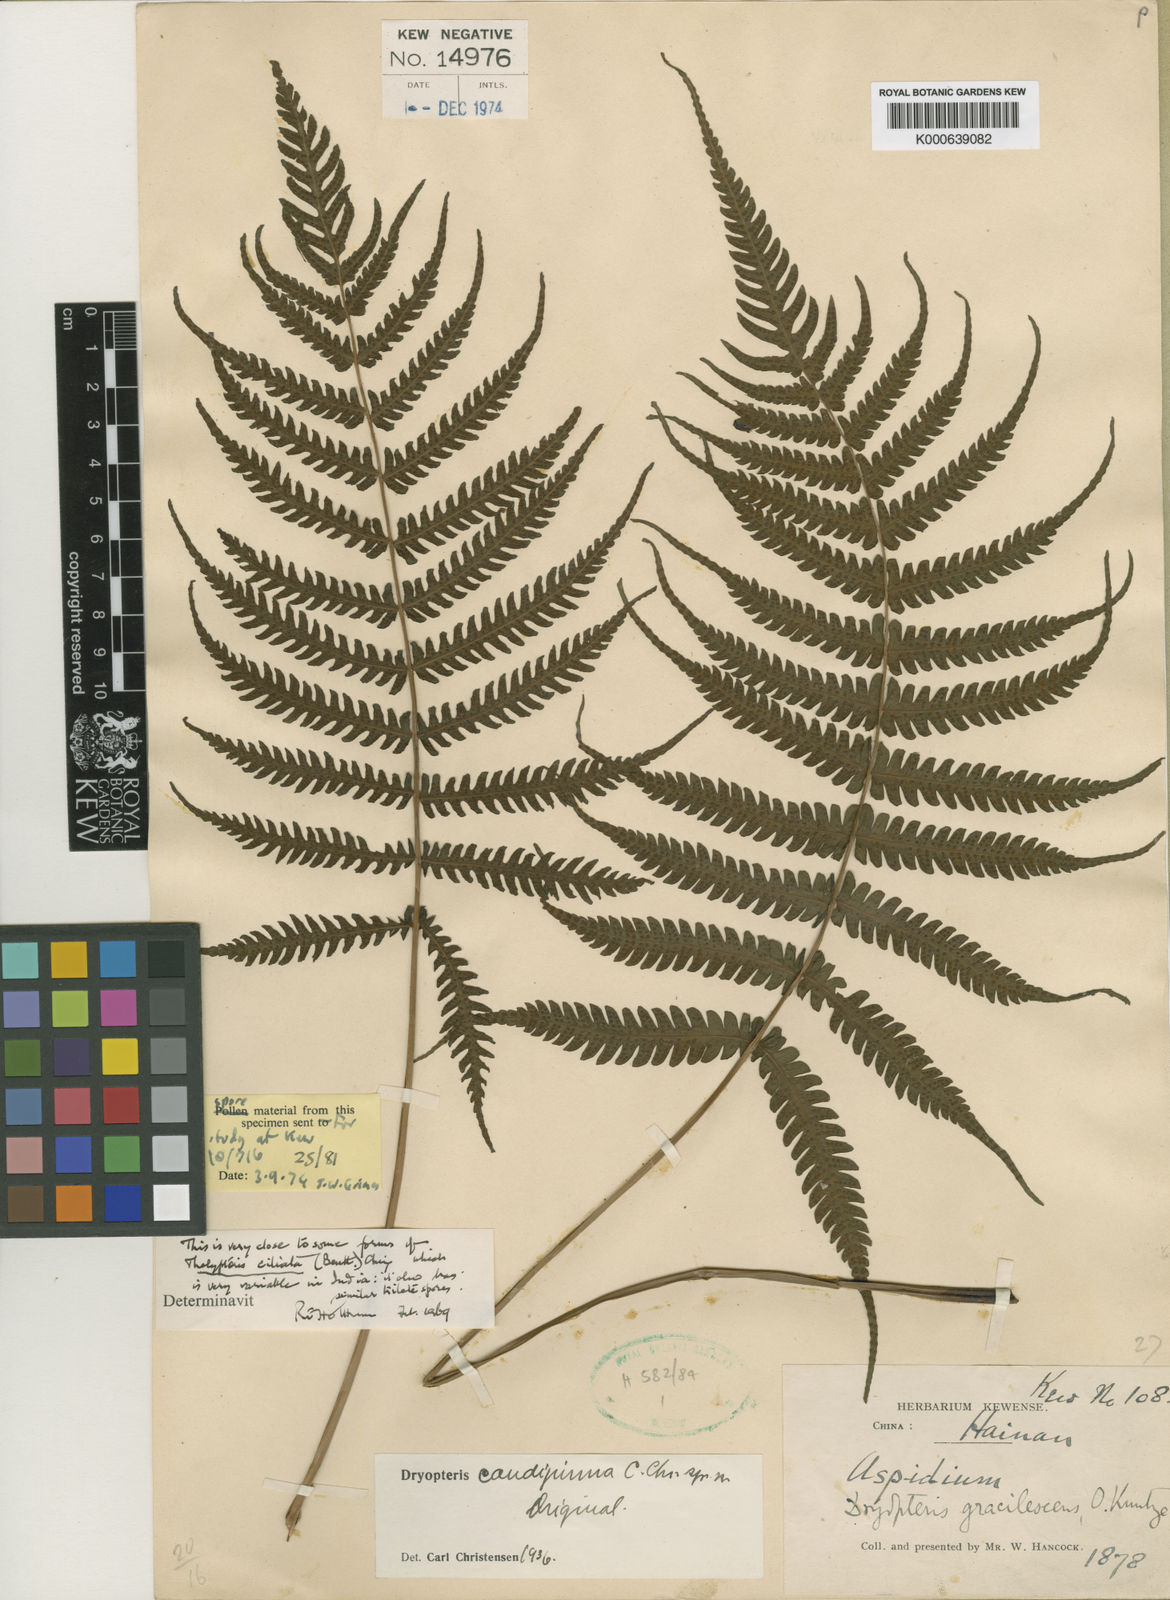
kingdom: Plantae
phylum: Tracheophyta
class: Polypodiopsida
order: Polypodiales
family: Thelypteridaceae
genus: Trigonospora
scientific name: Trigonospora caudipinna
